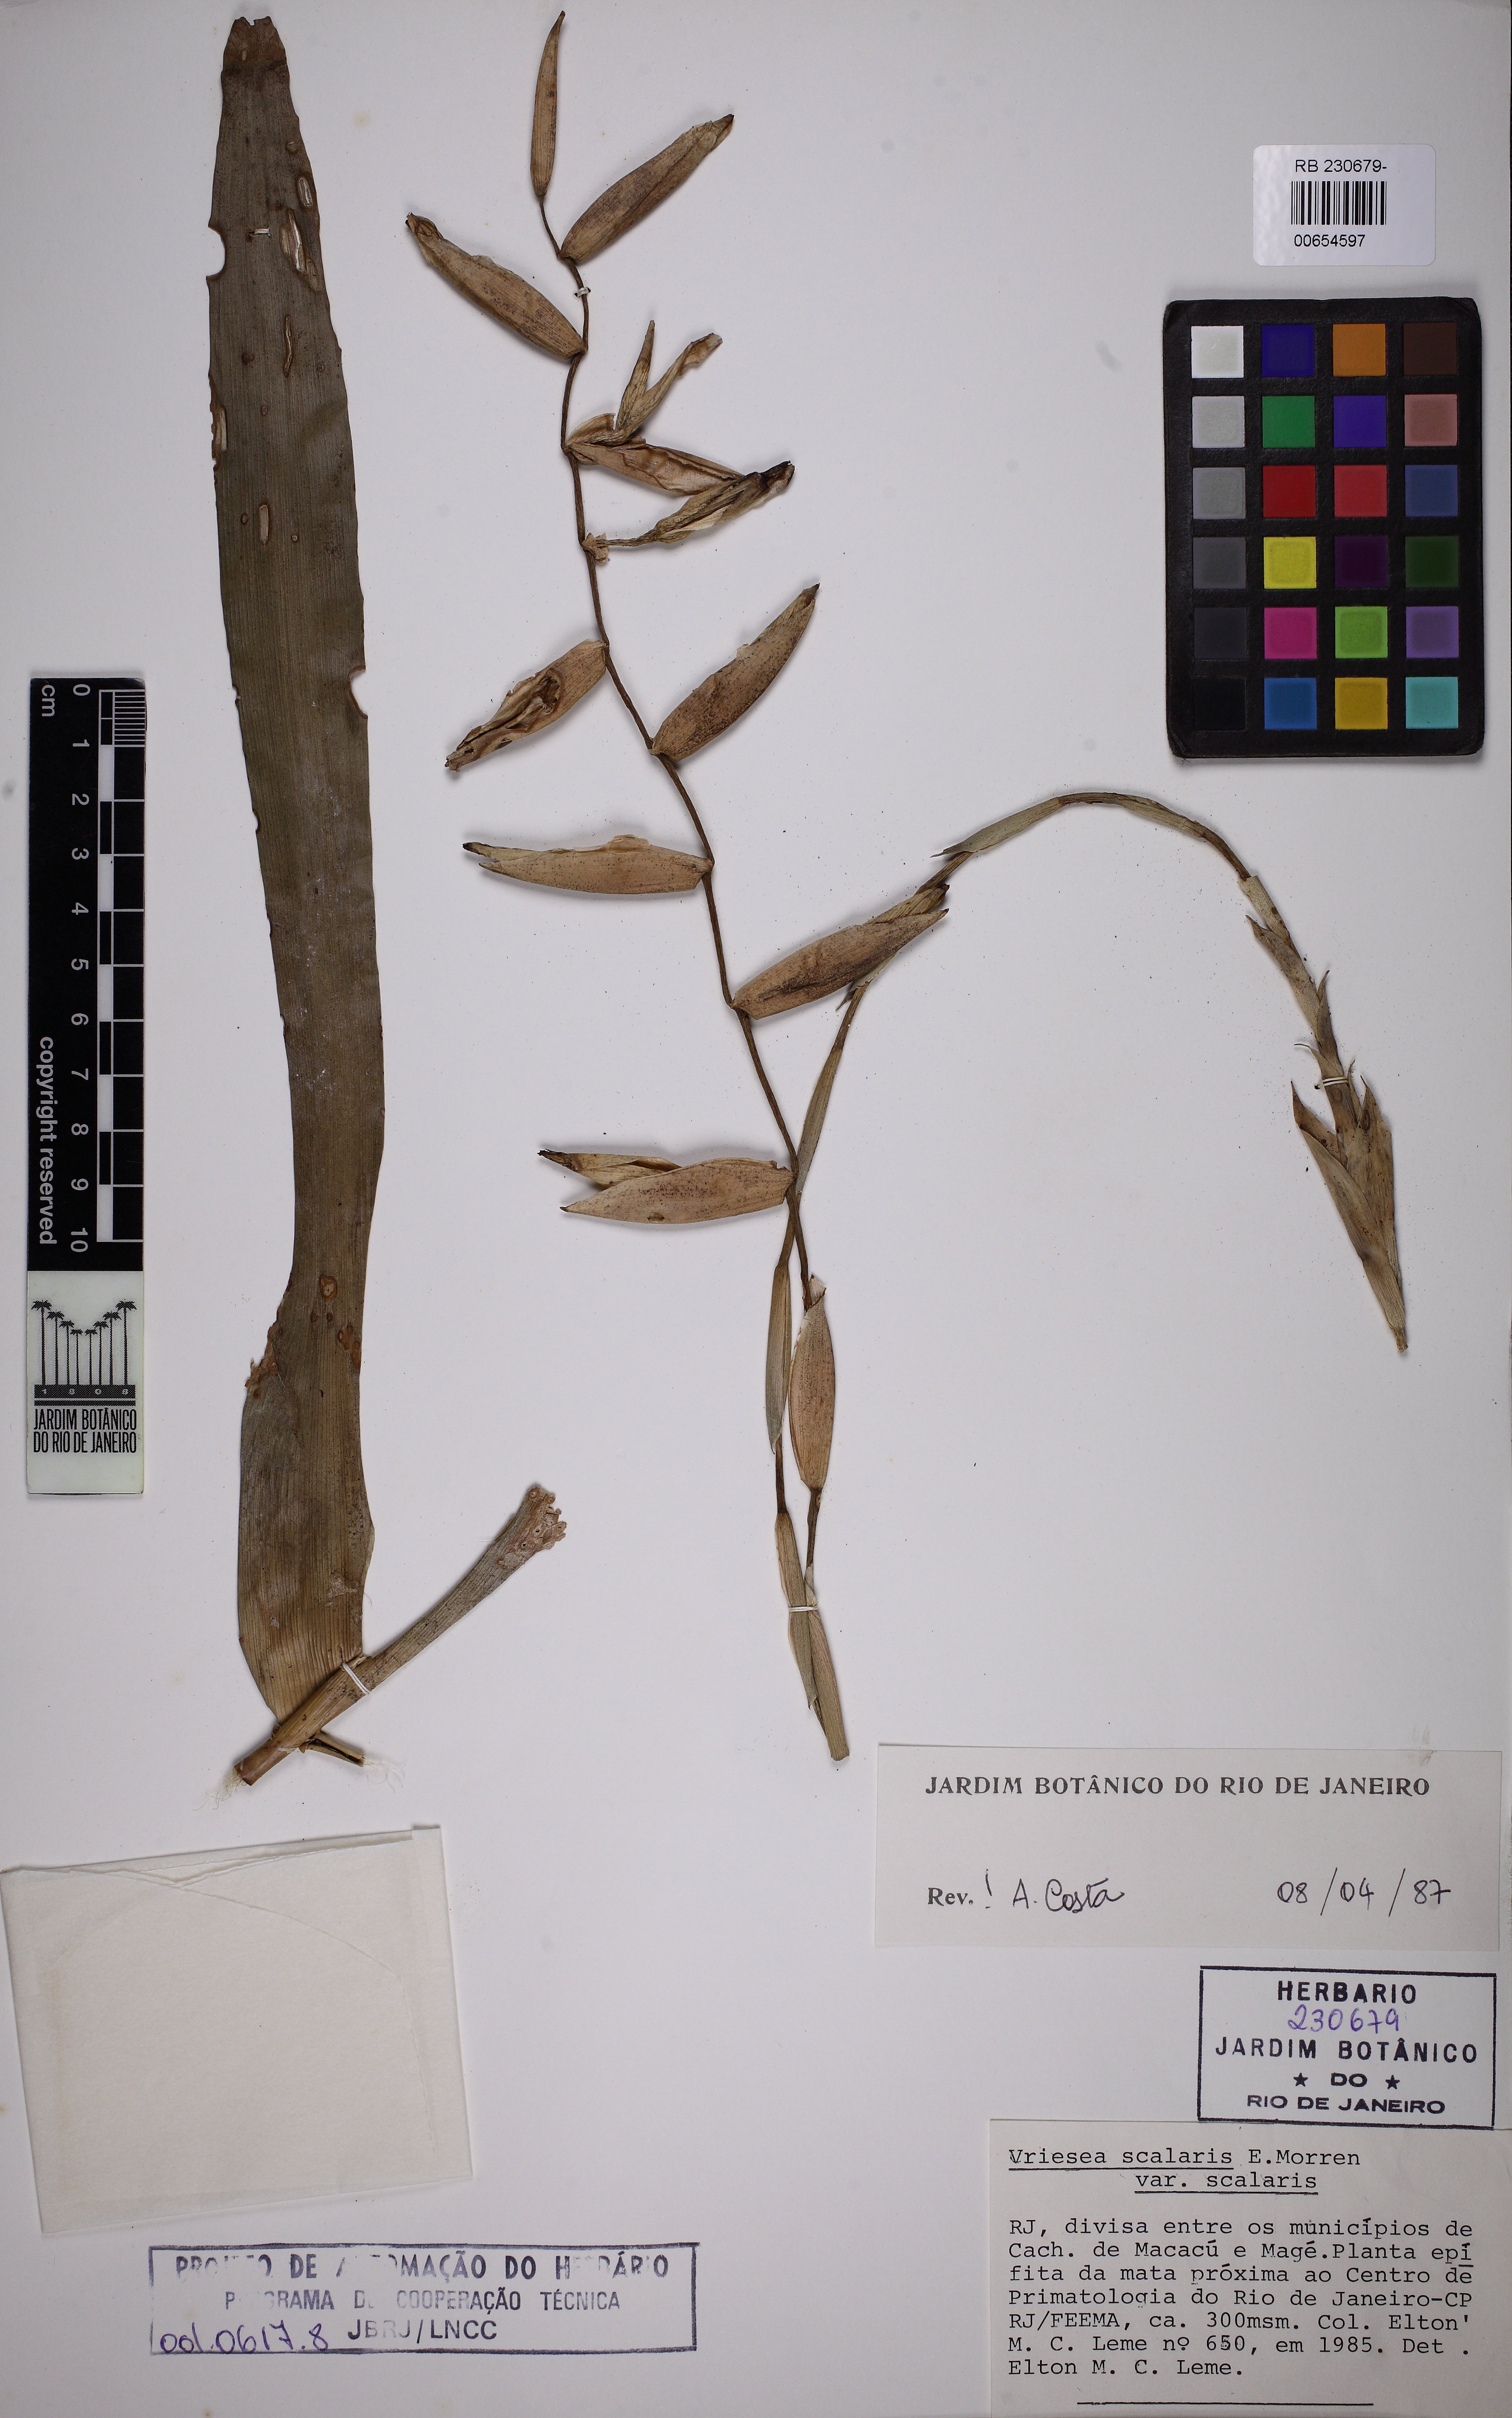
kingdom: Plantae
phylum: Tracheophyta
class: Liliopsida
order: Poales
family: Bromeliaceae
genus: Vriesea
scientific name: Vriesea scalaris
